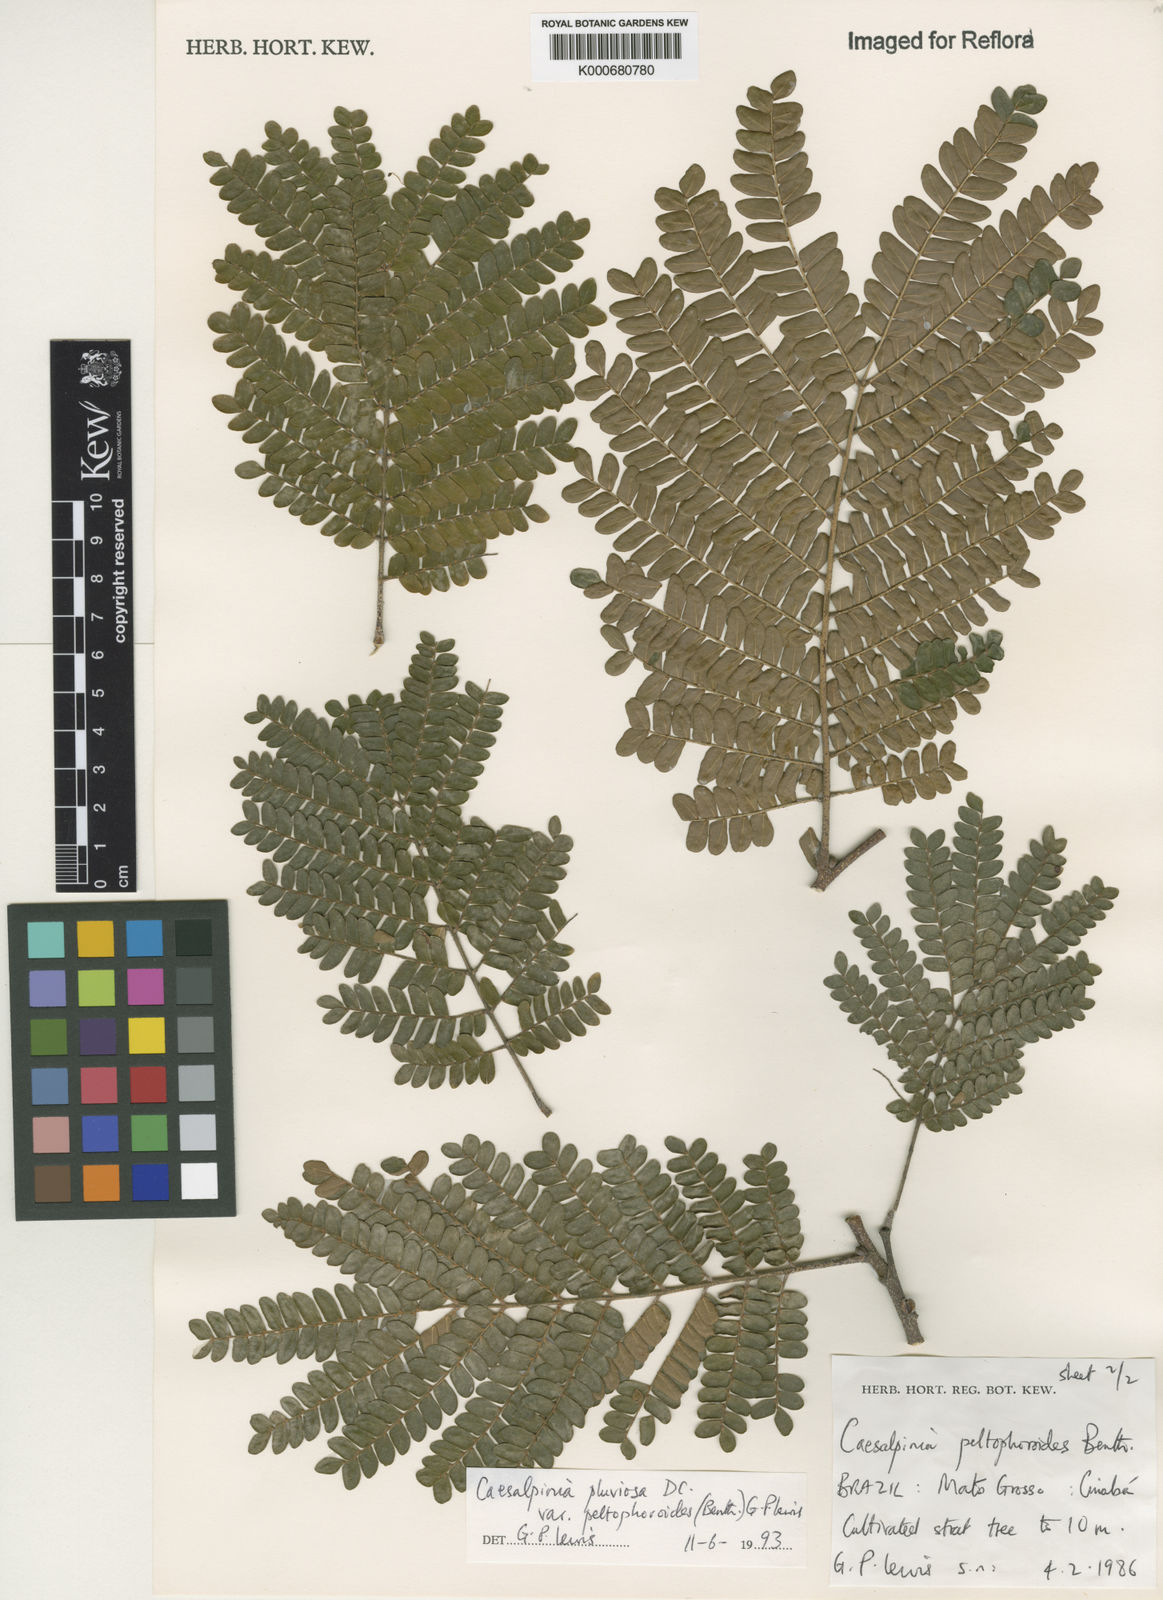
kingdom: Plantae
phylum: Tracheophyta
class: Magnoliopsida
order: Fabales
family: Fabaceae
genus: Cenostigma
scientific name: Cenostigma pluviosum
